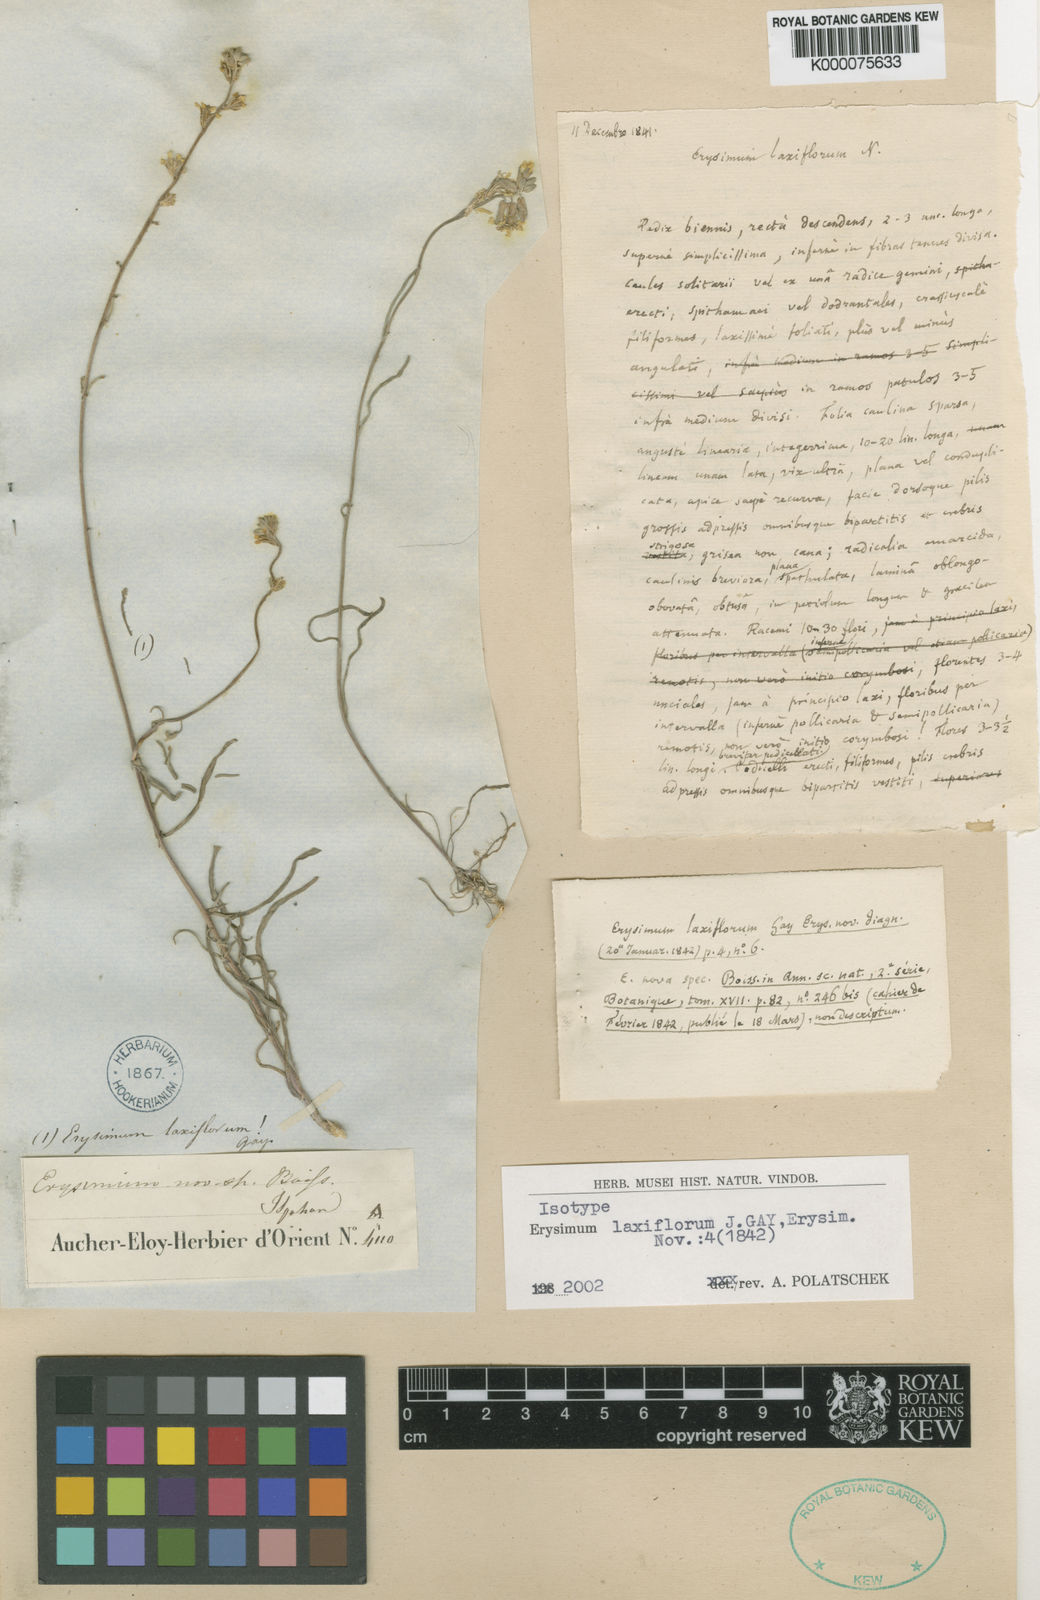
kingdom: Plantae
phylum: Tracheophyta
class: Magnoliopsida
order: Brassicales
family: Brassicaceae
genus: Erysimum
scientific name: Erysimum
